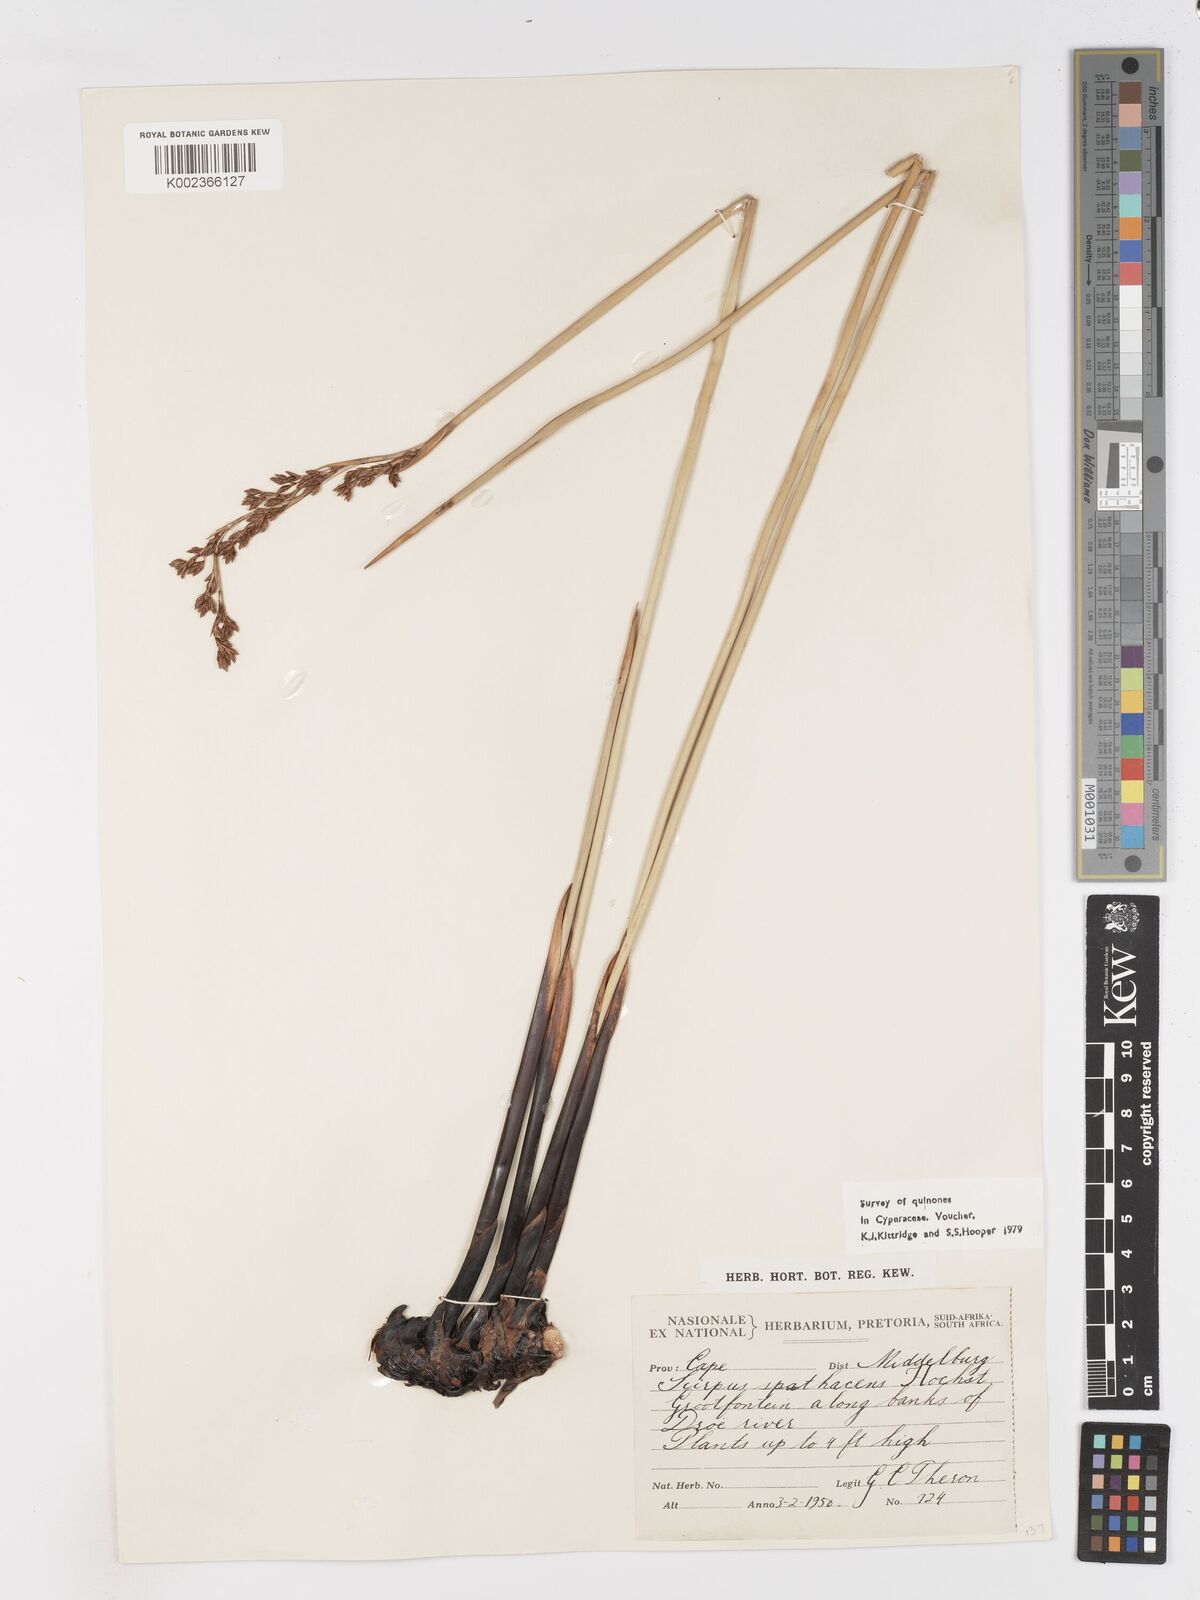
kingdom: Plantae
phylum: Tracheophyta
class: Liliopsida
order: Poales
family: Cyperaceae
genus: Pseudoschoenus
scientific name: Pseudoschoenus inanis
